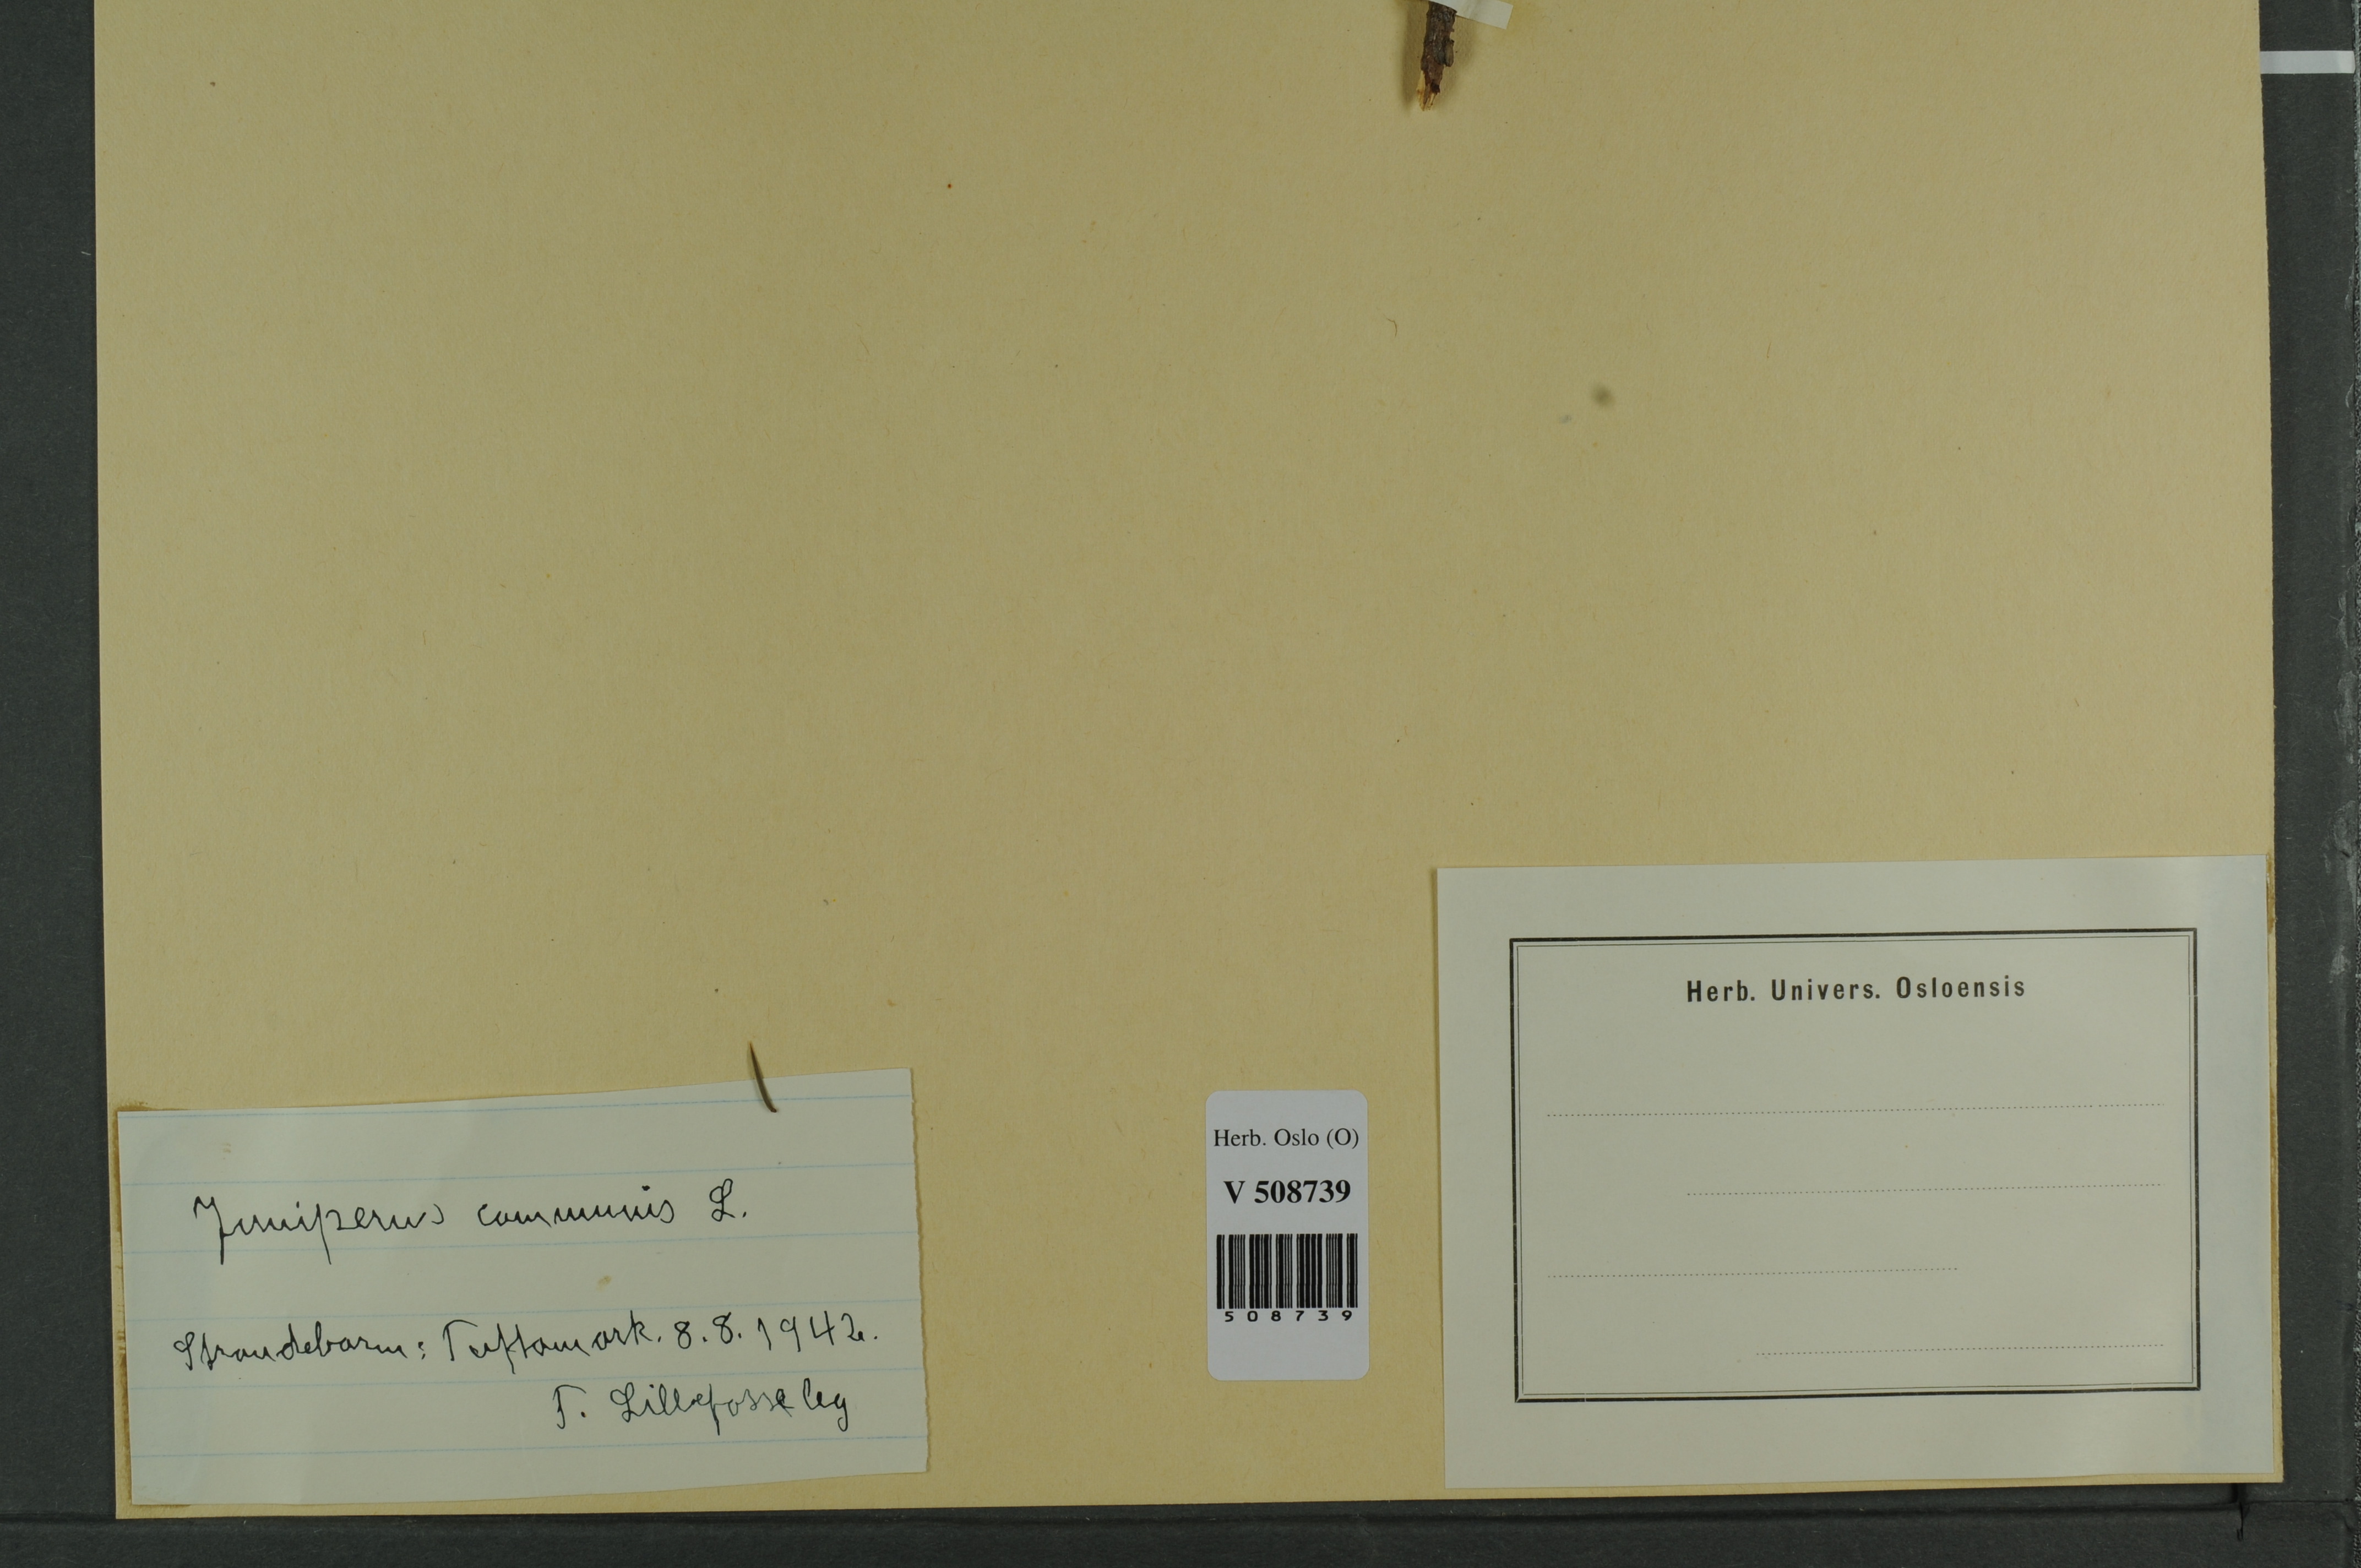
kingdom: Plantae
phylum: Tracheophyta
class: Pinopsida
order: Pinales
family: Cupressaceae
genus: Juniperus
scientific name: Juniperus communis
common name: Common juniper
